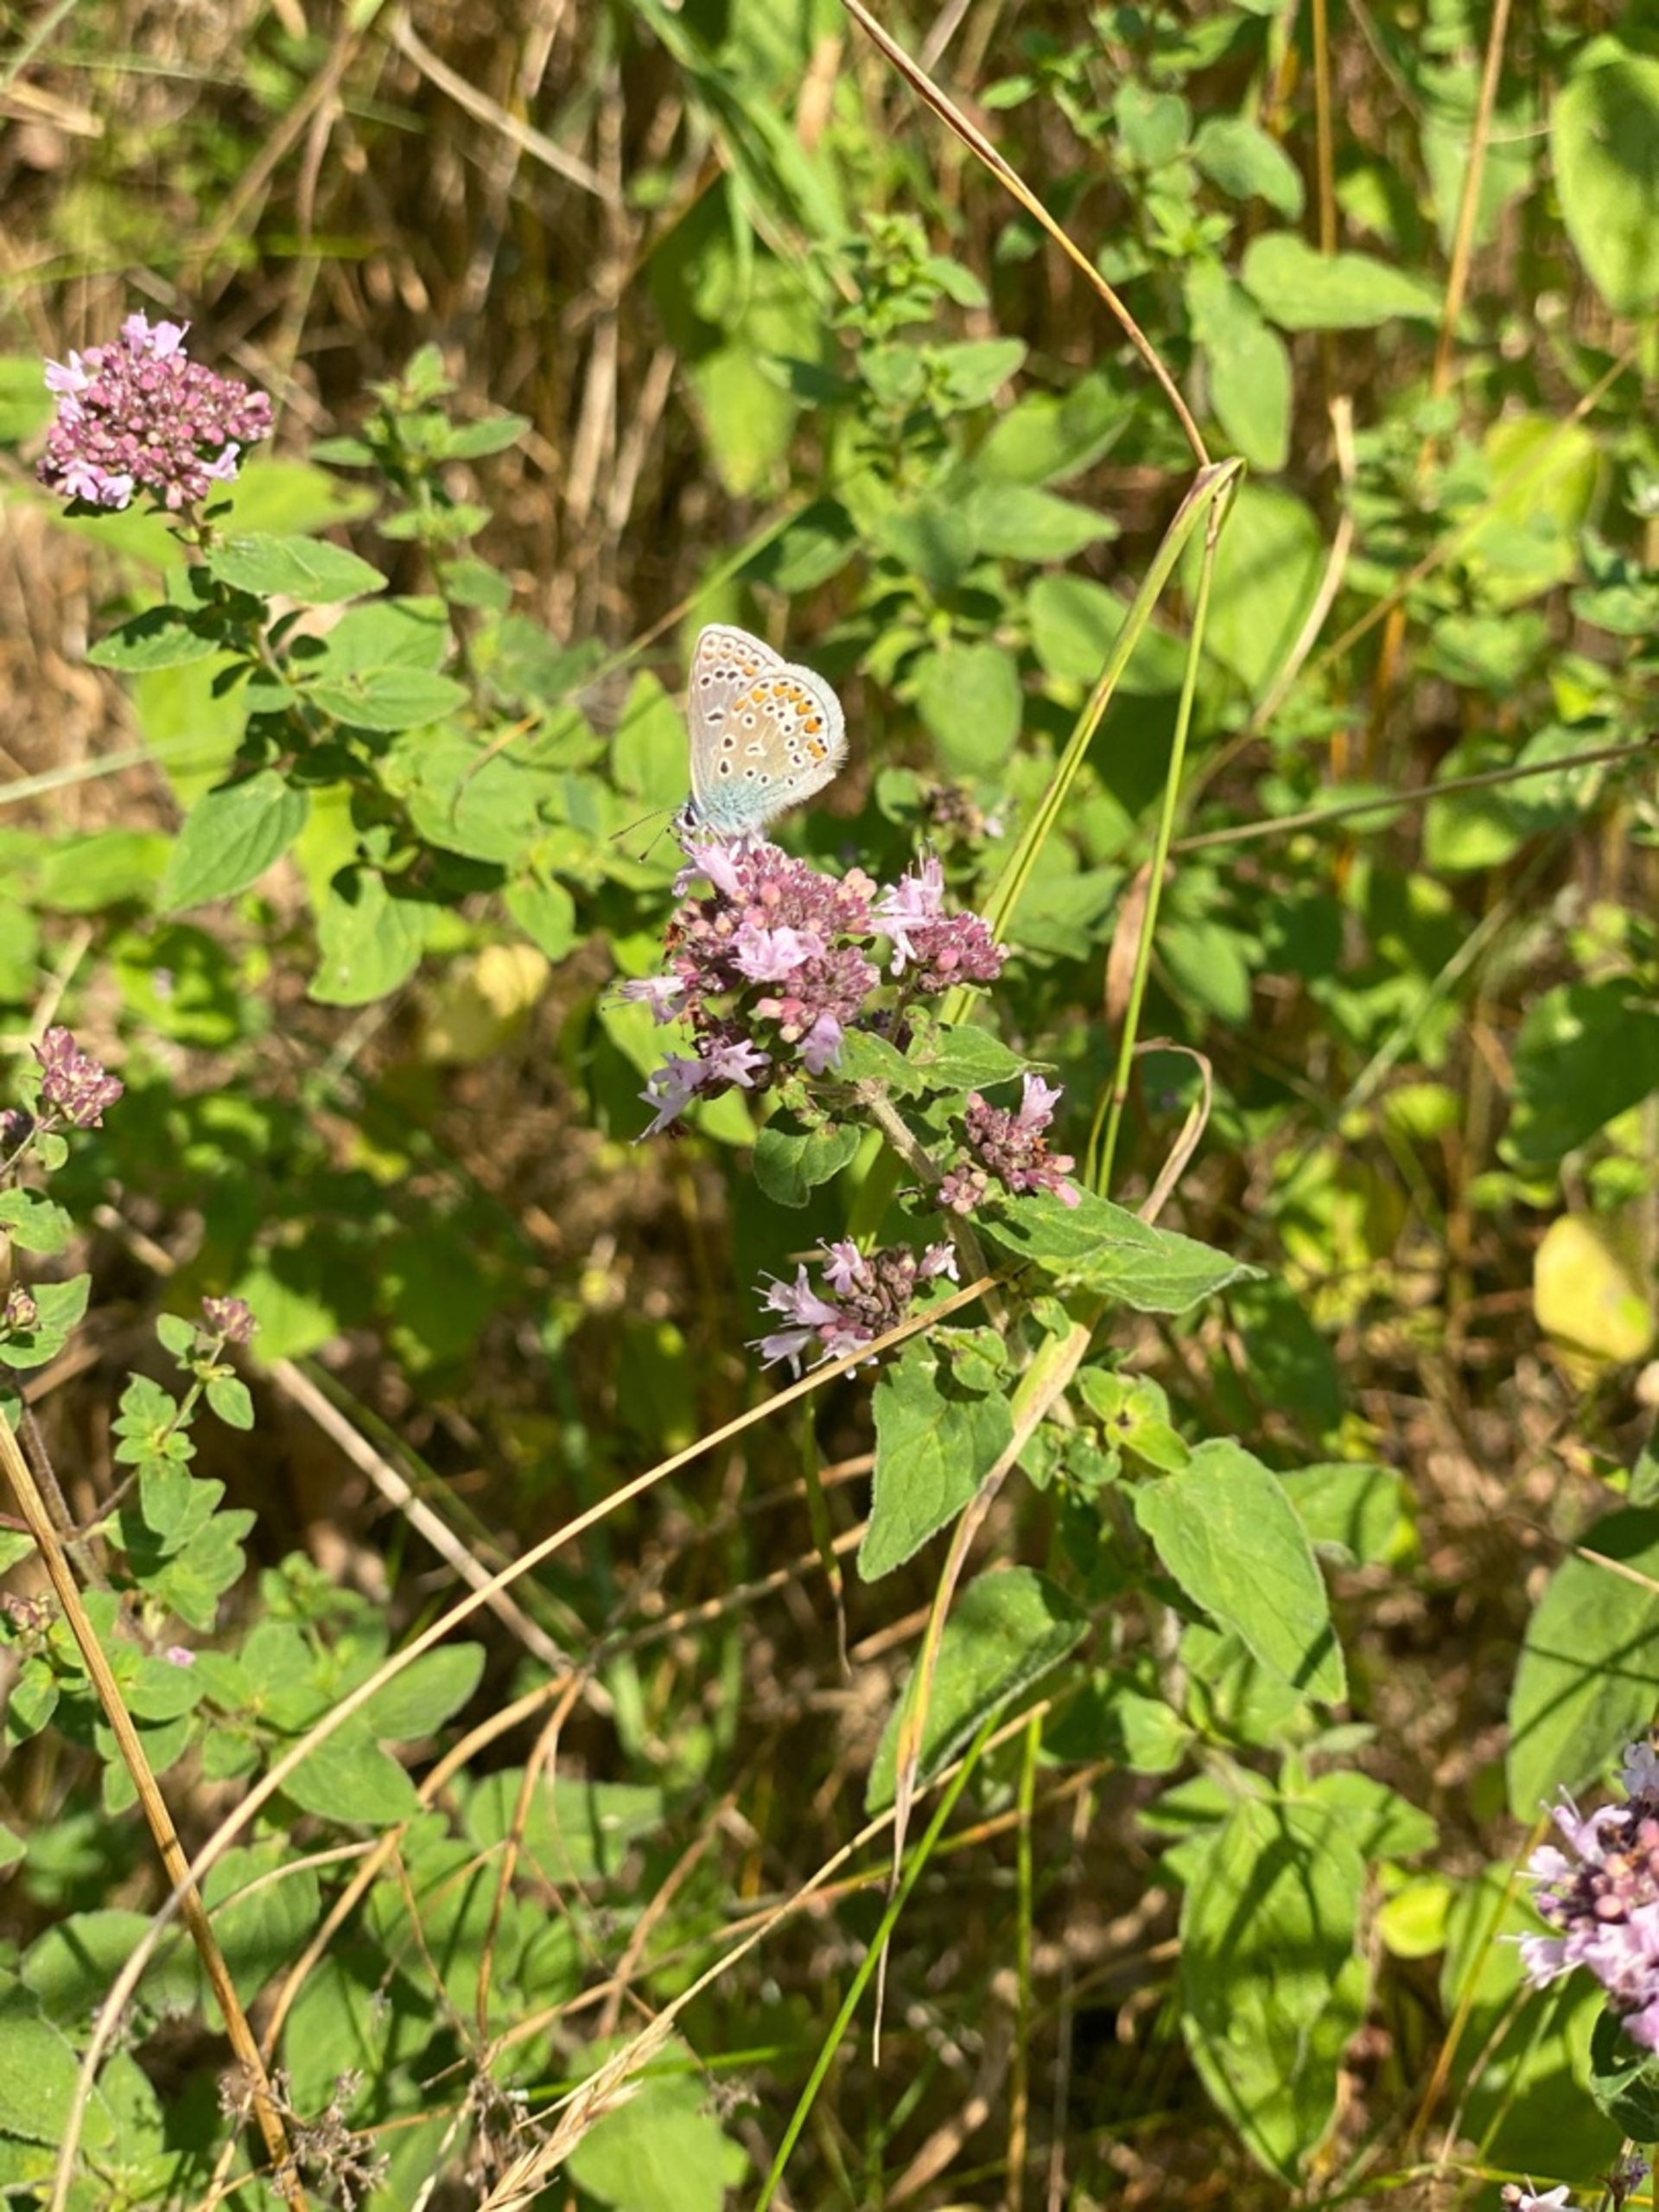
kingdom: Animalia
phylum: Arthropoda
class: Insecta
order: Lepidoptera
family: Lycaenidae
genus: Polyommatus
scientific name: Polyommatus icarus
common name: Almindelig blåfugl
